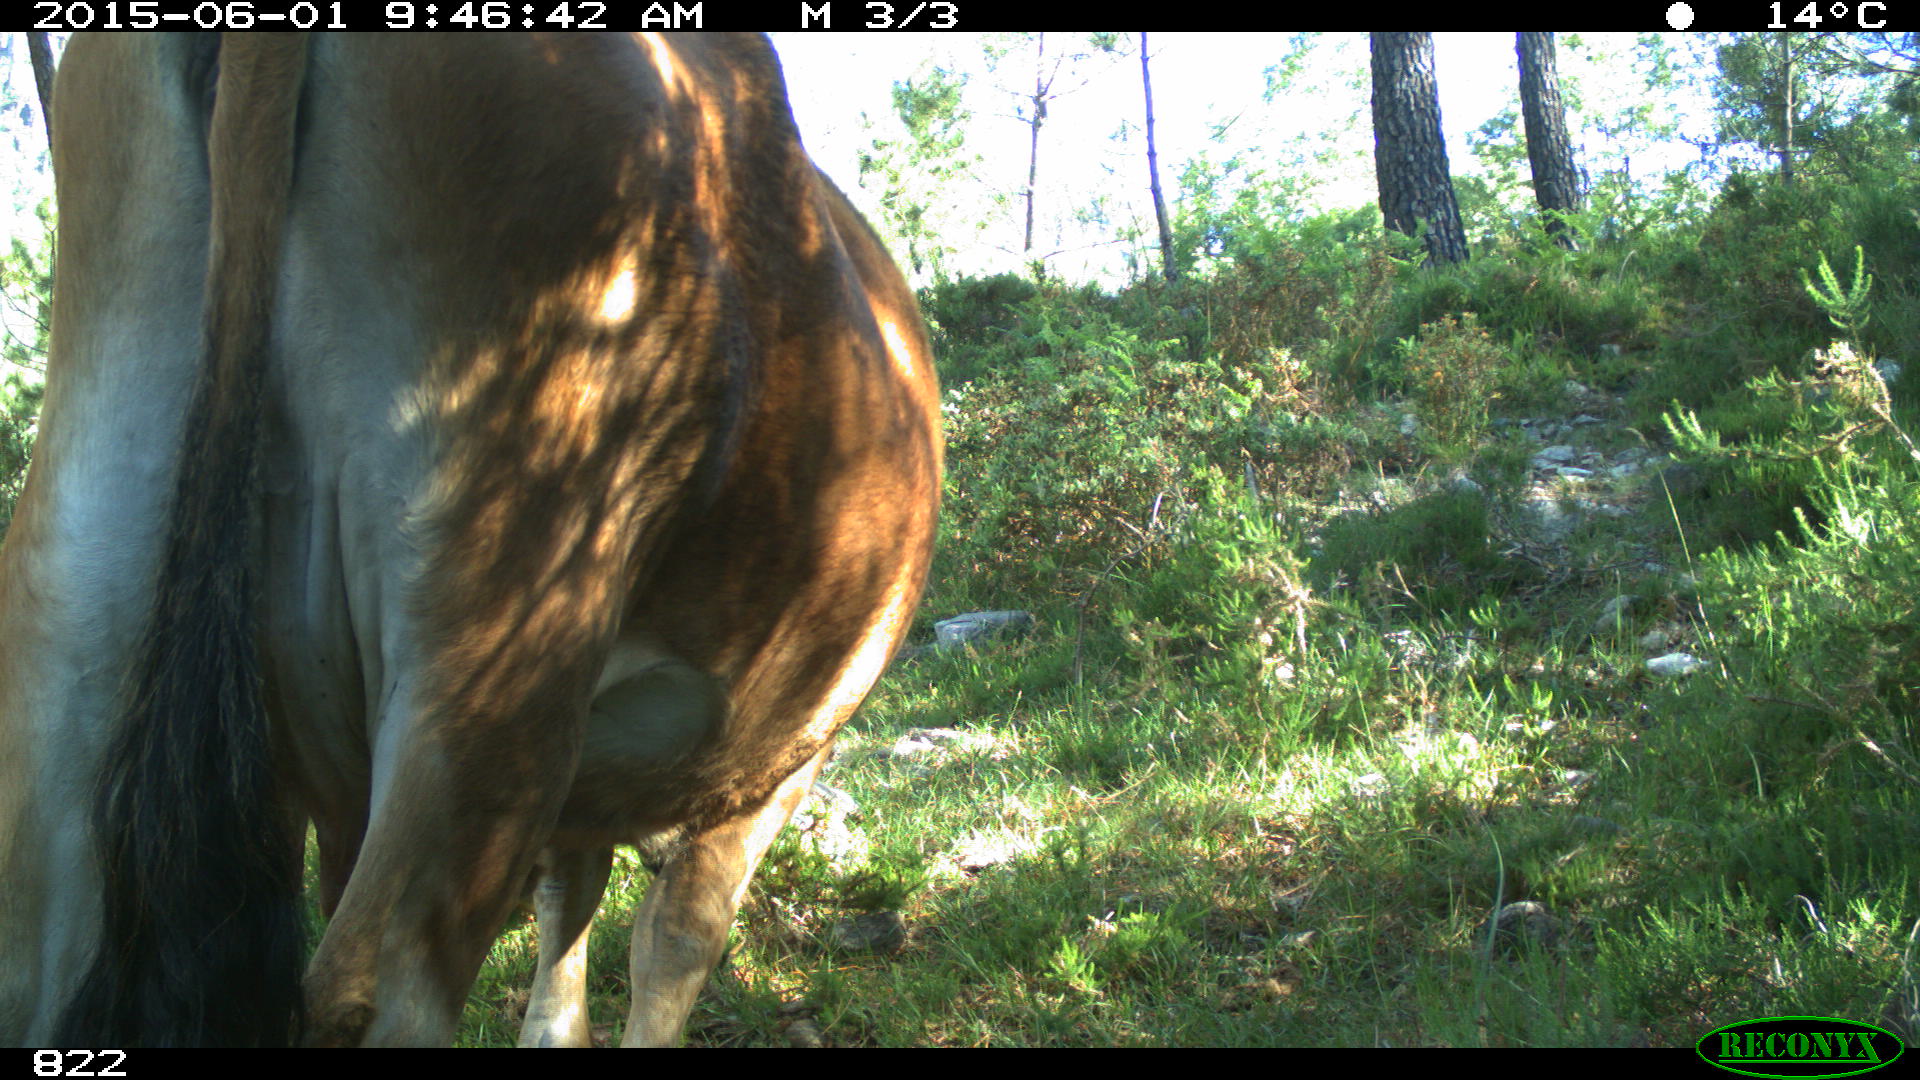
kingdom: Animalia
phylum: Chordata
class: Mammalia
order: Artiodactyla
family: Bovidae
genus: Bos
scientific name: Bos taurus
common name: Domesticated cattle
